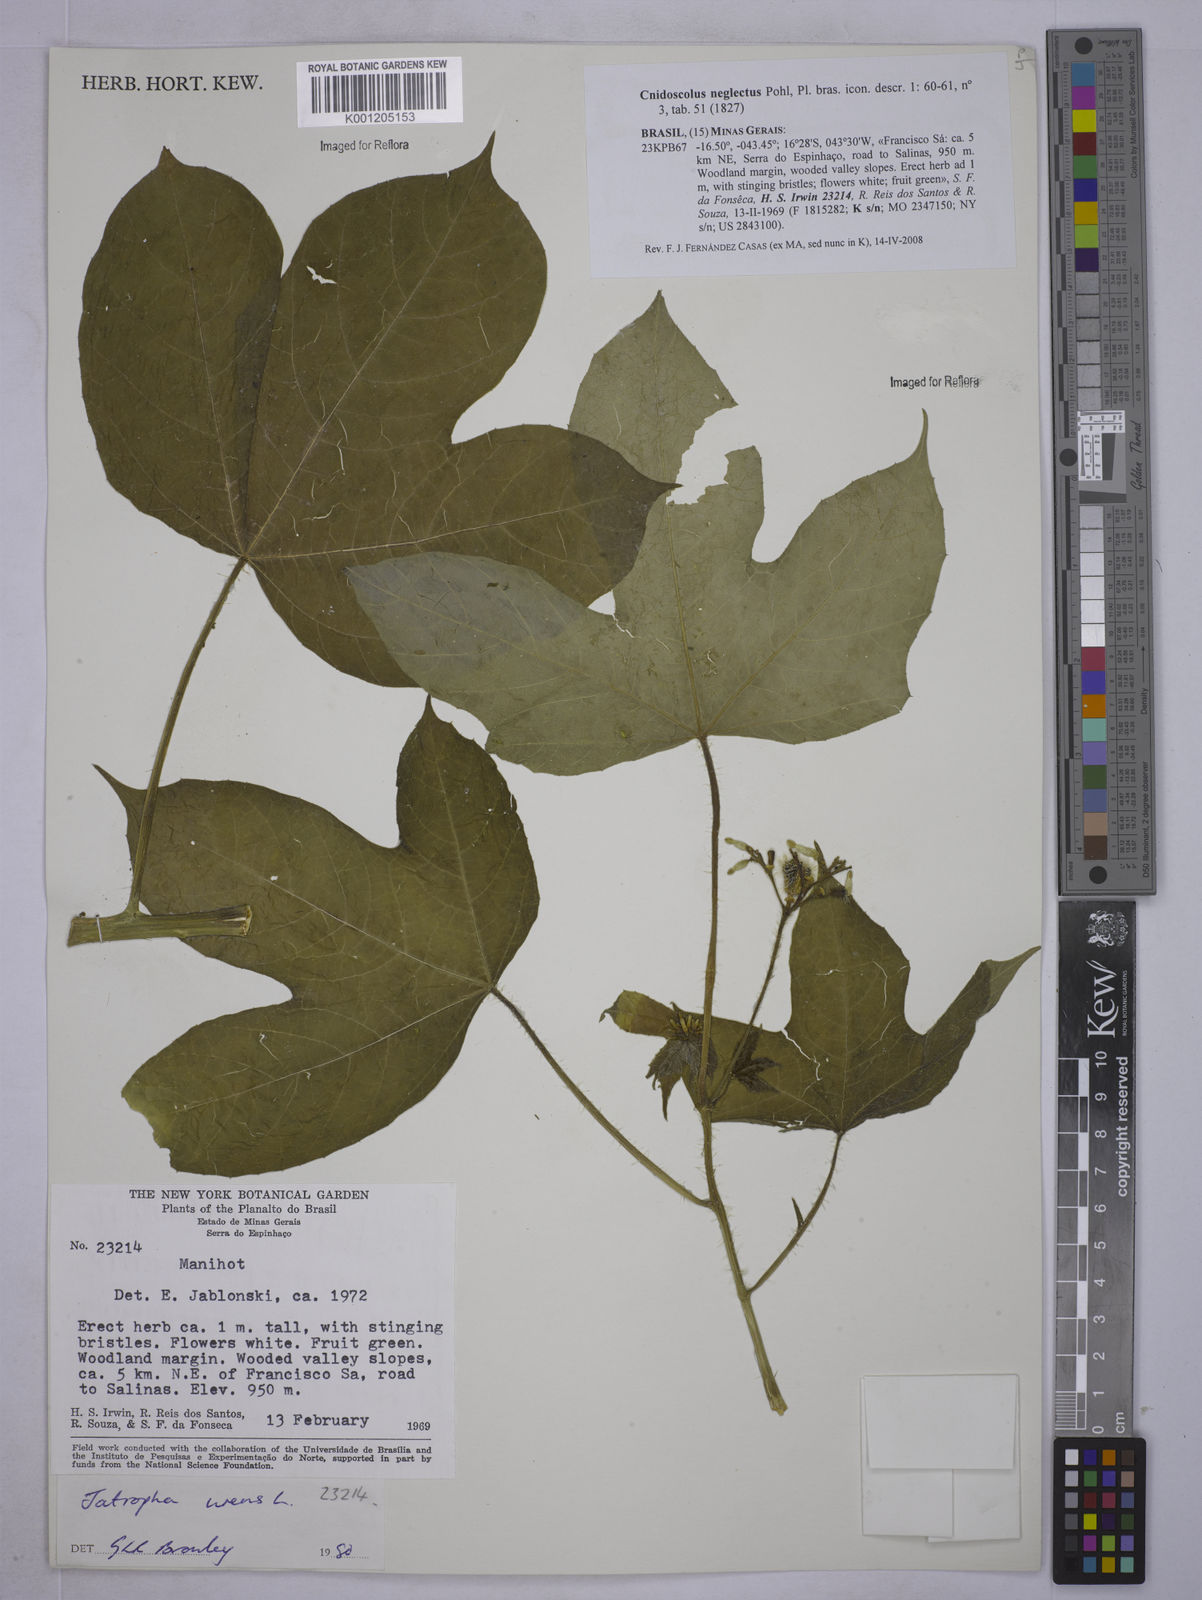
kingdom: Plantae
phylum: Tracheophyta
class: Magnoliopsida
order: Malpighiales
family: Euphorbiaceae
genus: Cnidoscolus
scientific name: Cnidoscolus neglectus
